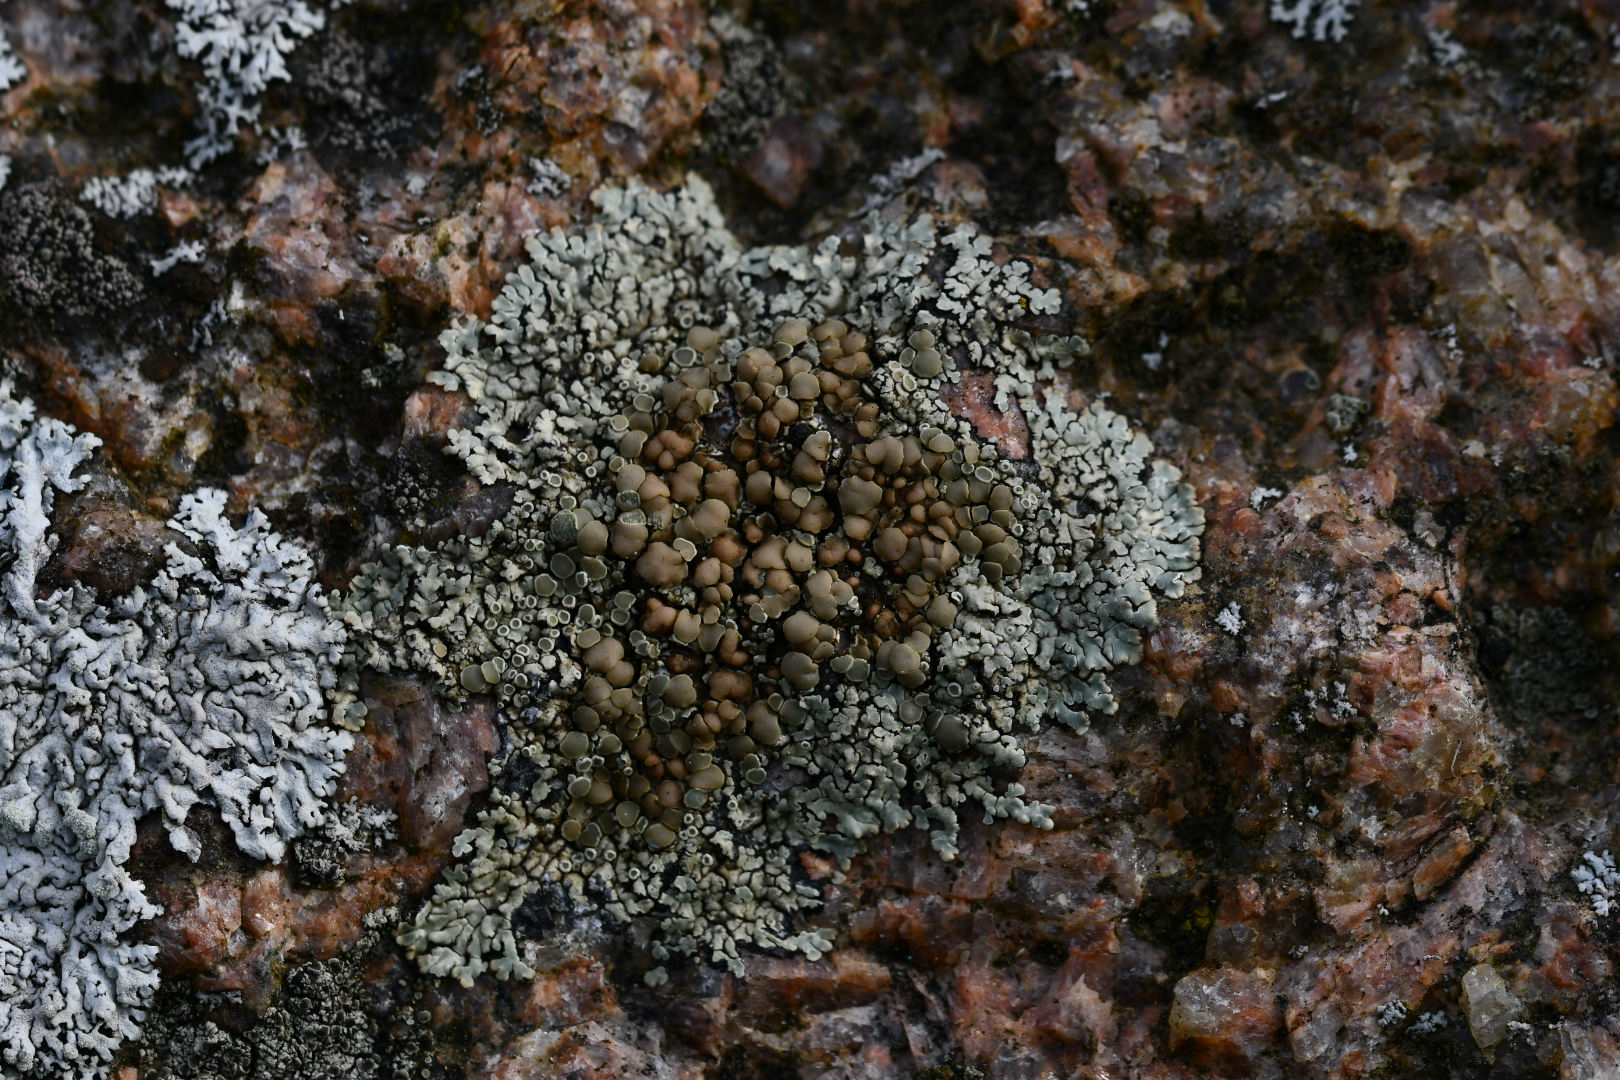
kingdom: Fungi
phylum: Ascomycota
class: Lecanoromycetes
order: Lecanorales
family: Lecanoraceae
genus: Protoparmeliopsis
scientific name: Protoparmeliopsis muralis
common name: randfliget kantskivelav
